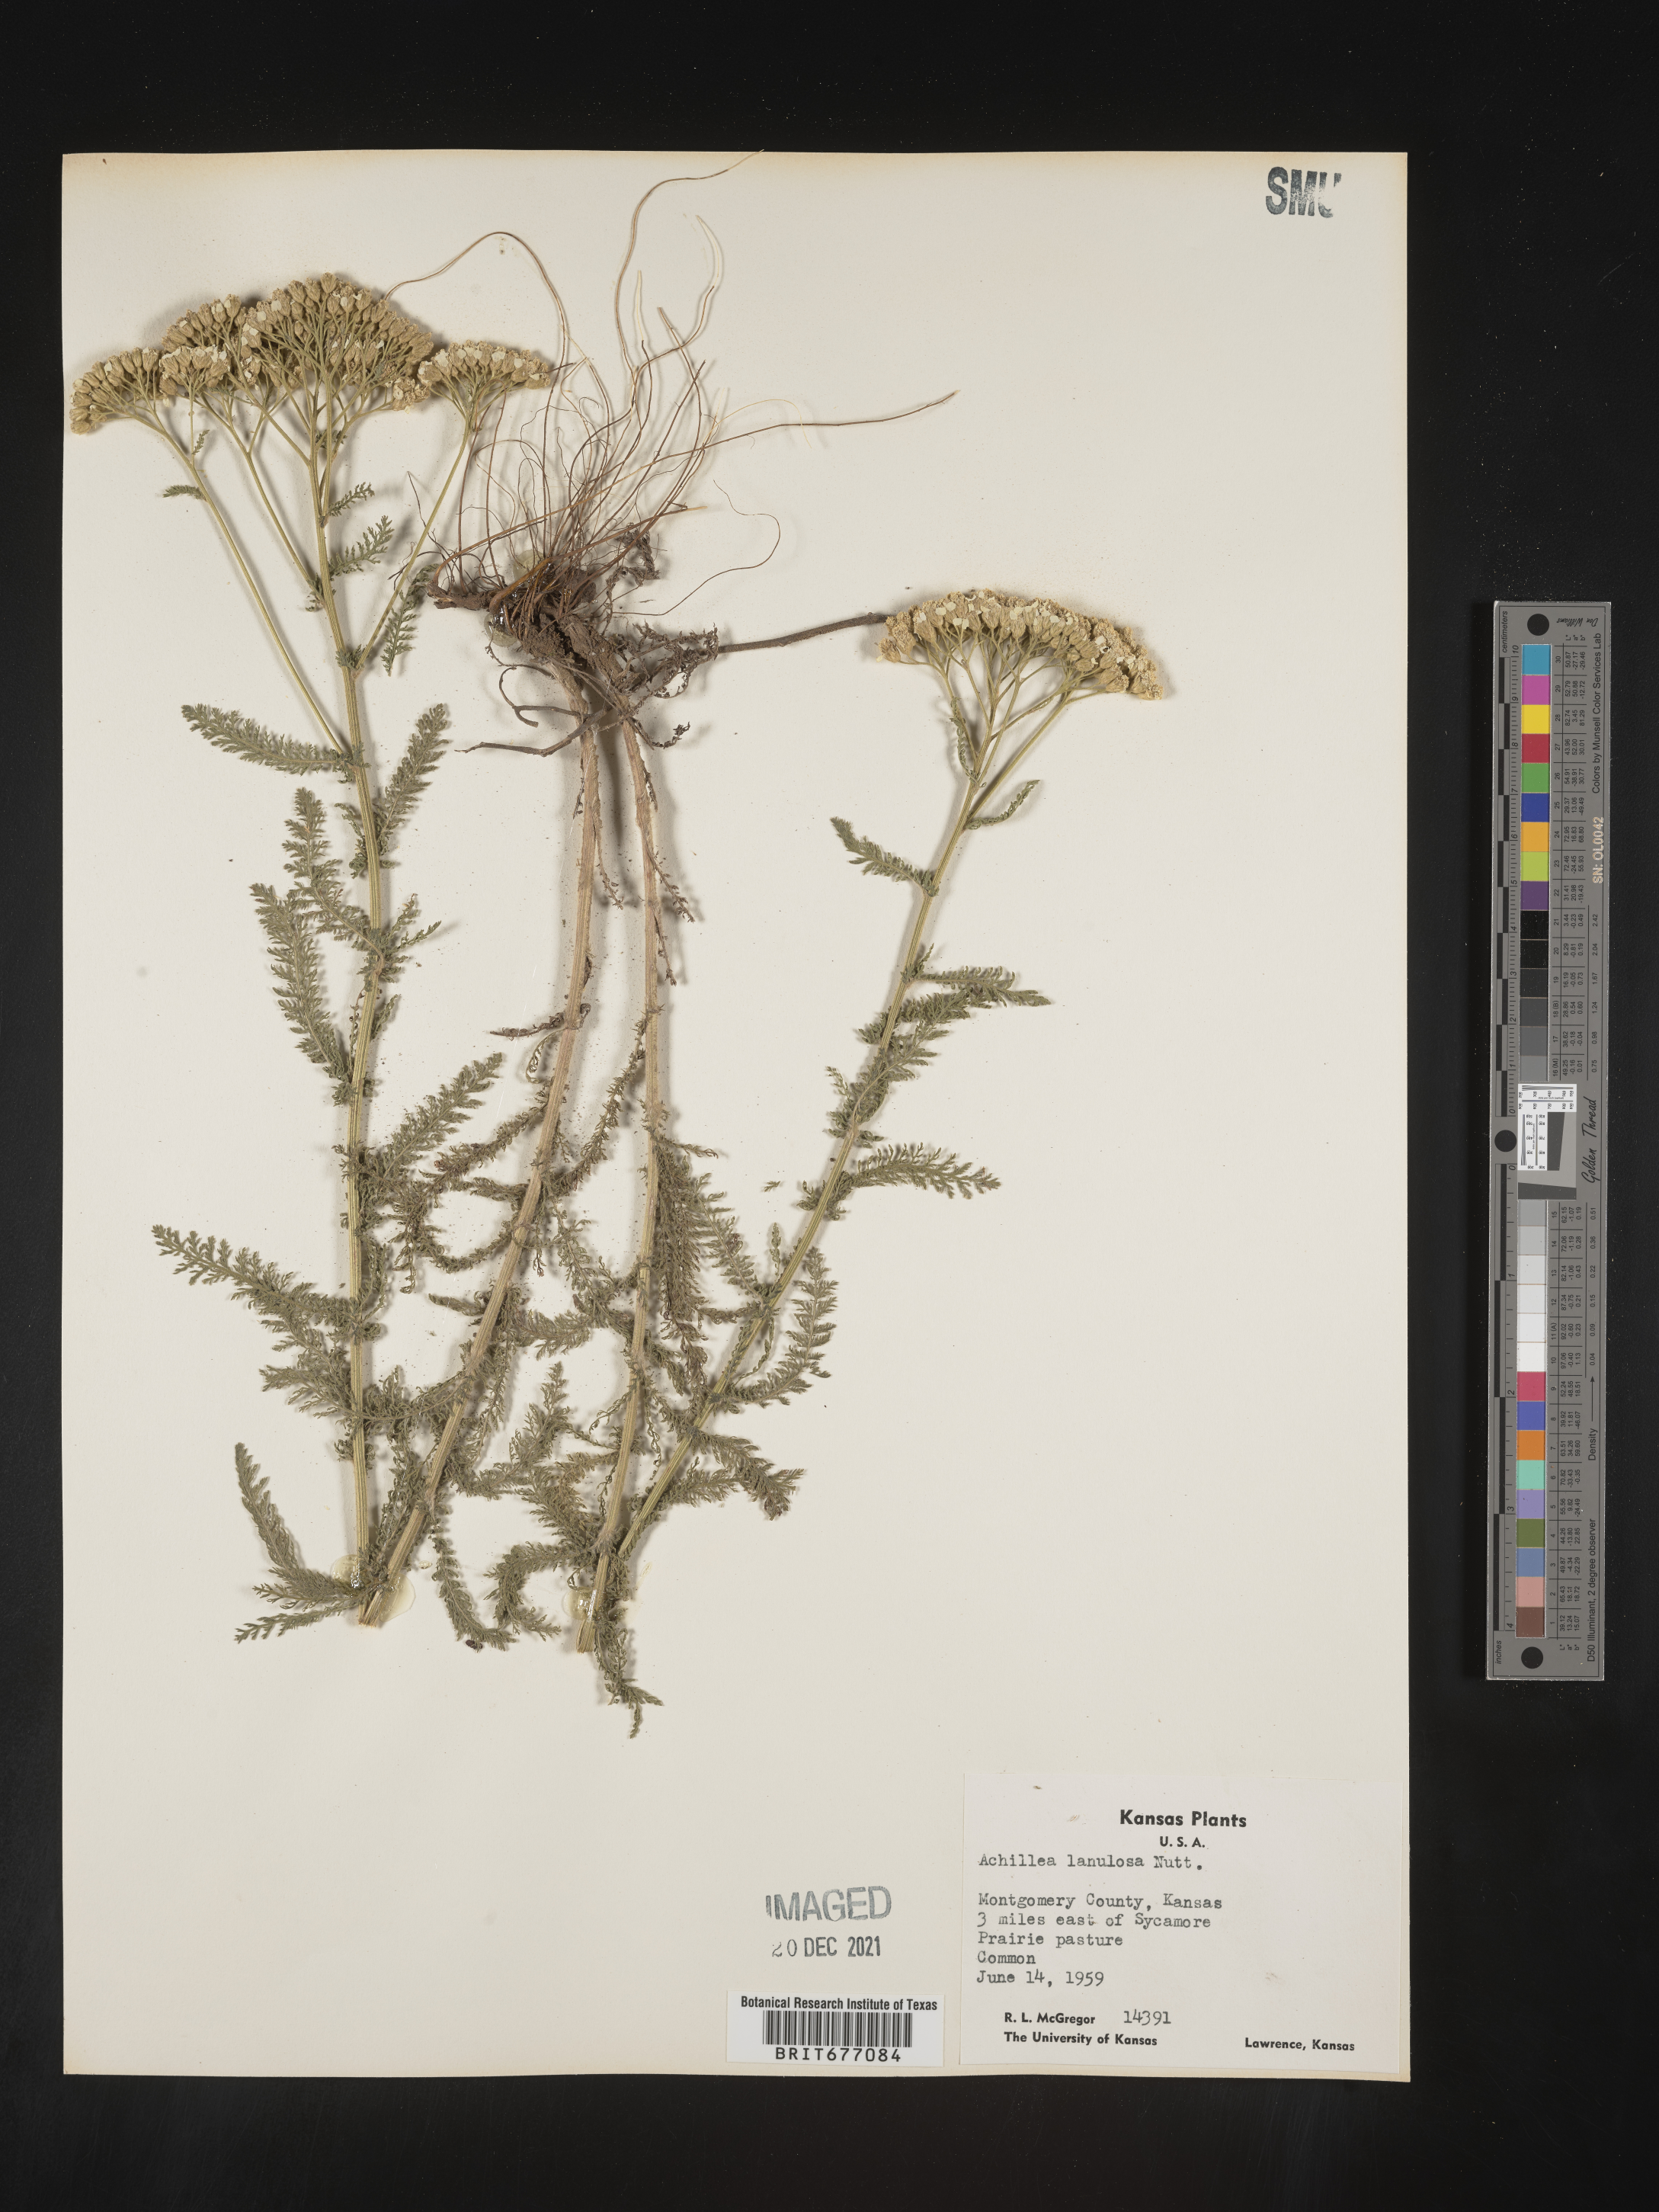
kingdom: Plantae
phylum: Tracheophyta
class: Magnoliopsida
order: Asterales
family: Asteraceae
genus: Achillea
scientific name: Achillea millefolium
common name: Yarrow
